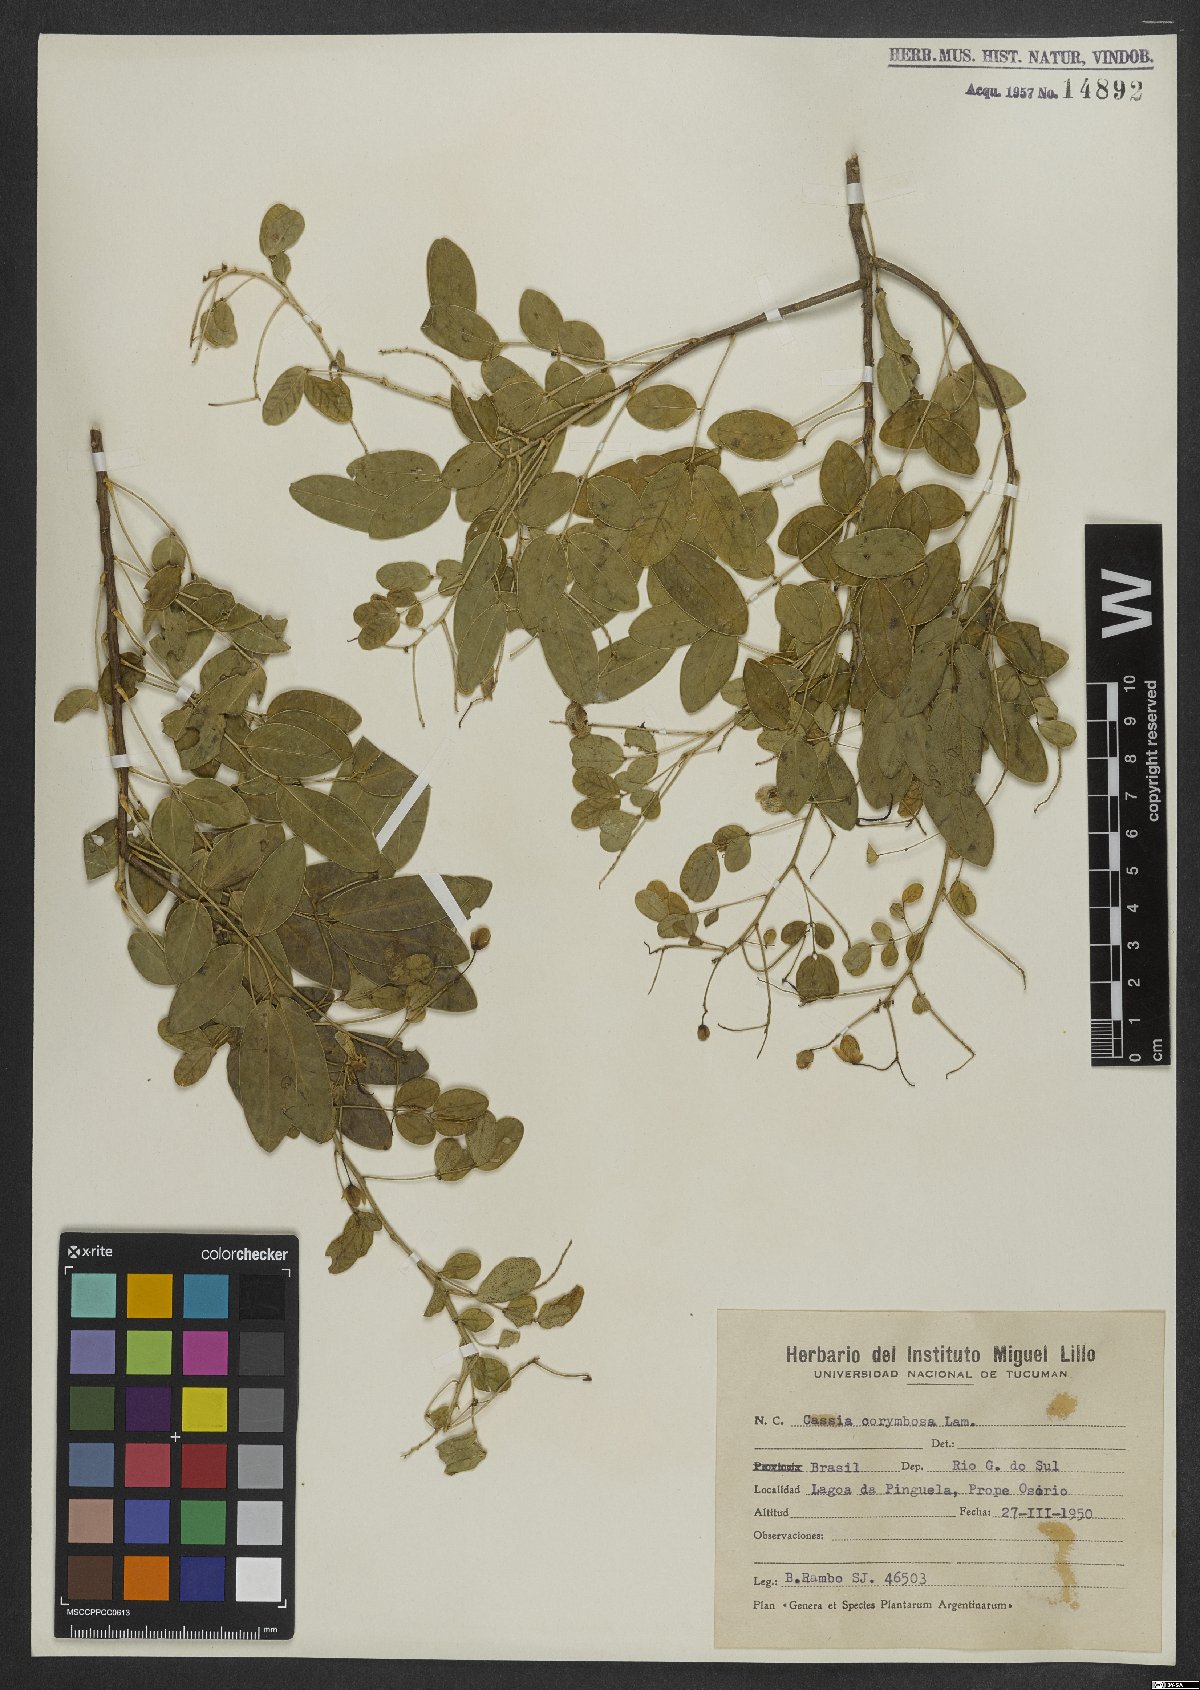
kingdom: Plantae
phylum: Tracheophyta
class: Magnoliopsida
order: Fabales
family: Fabaceae
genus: Senna
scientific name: Senna corymbosa
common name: Argentine senna
